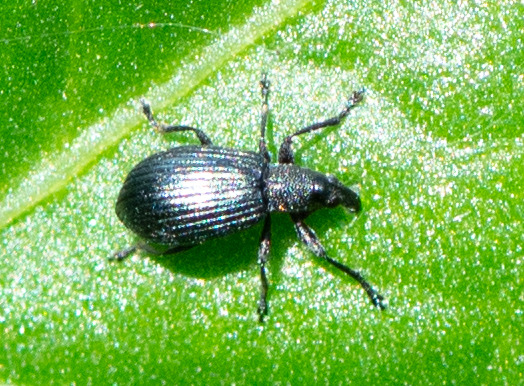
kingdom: Animalia
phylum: Arthropoda
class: Insecta
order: Coleoptera
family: Brentidae
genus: Perapion
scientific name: Perapion hydrolapathi
